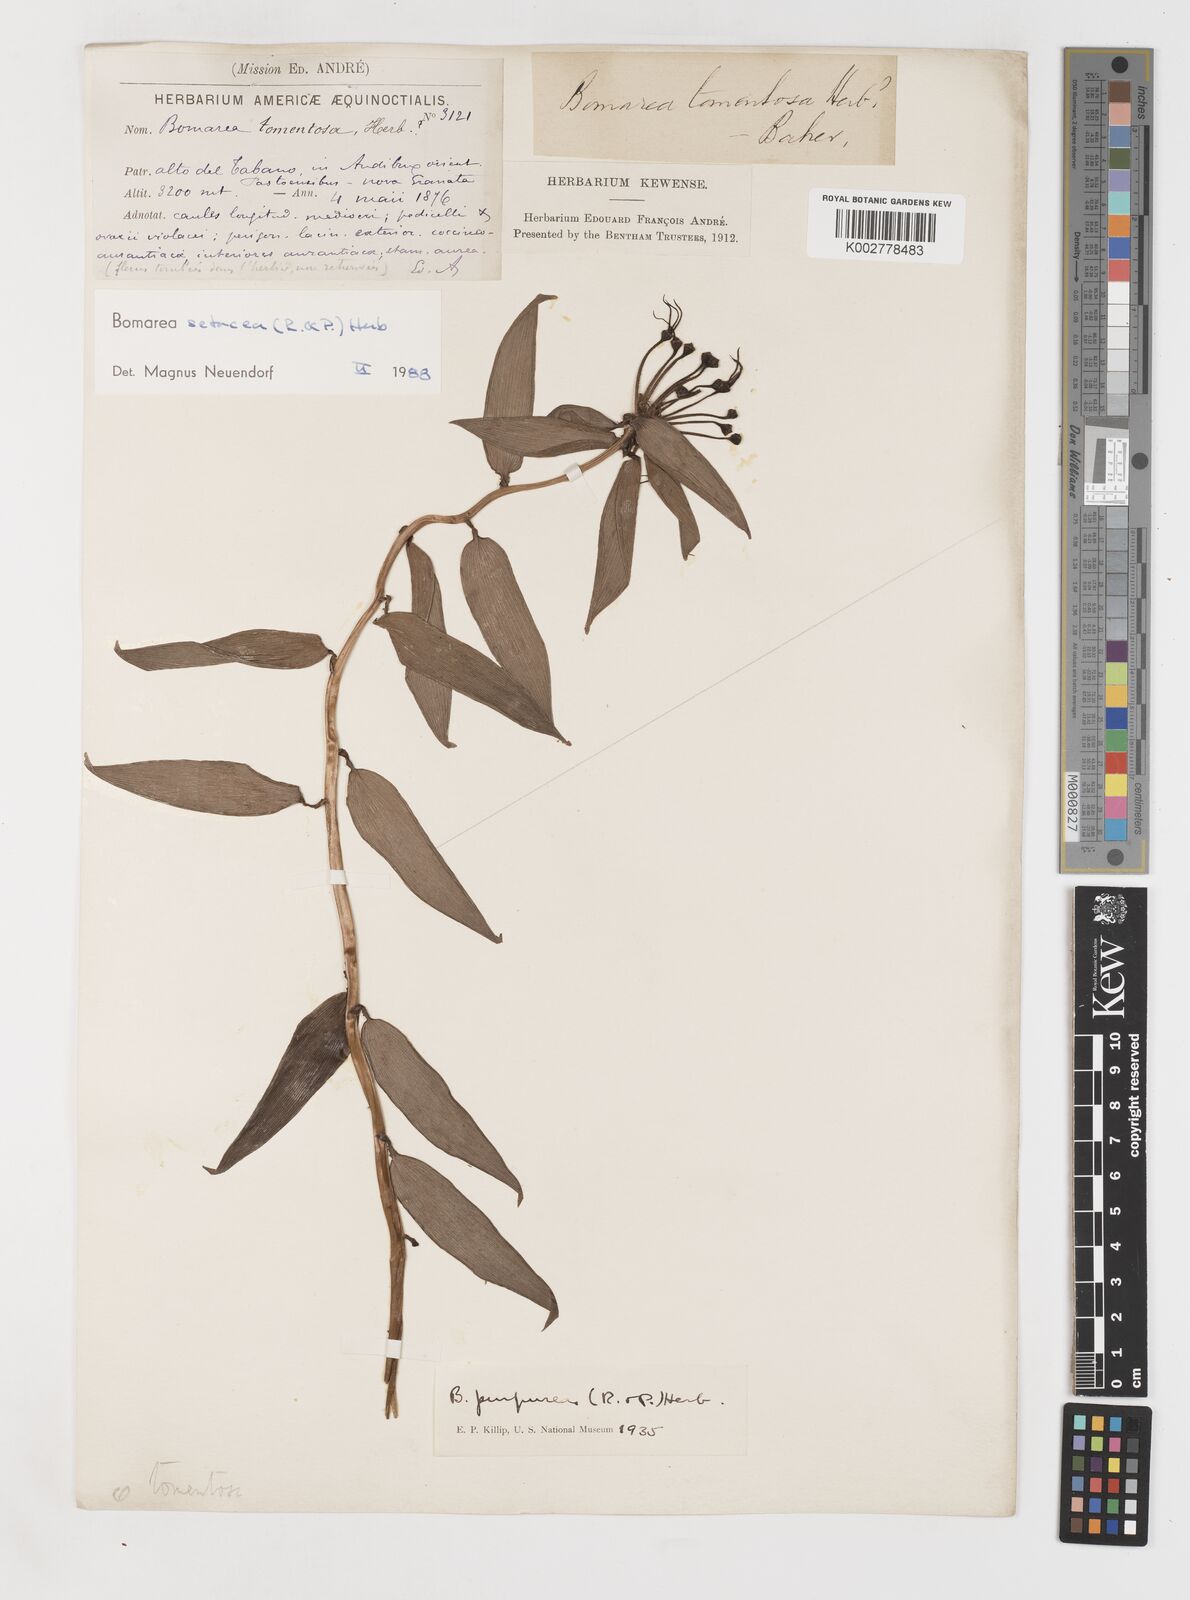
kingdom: Plantae
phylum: Tracheophyta
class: Liliopsida
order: Liliales
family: Alstroemeriaceae
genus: Bomarea
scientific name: Bomarea setacea
